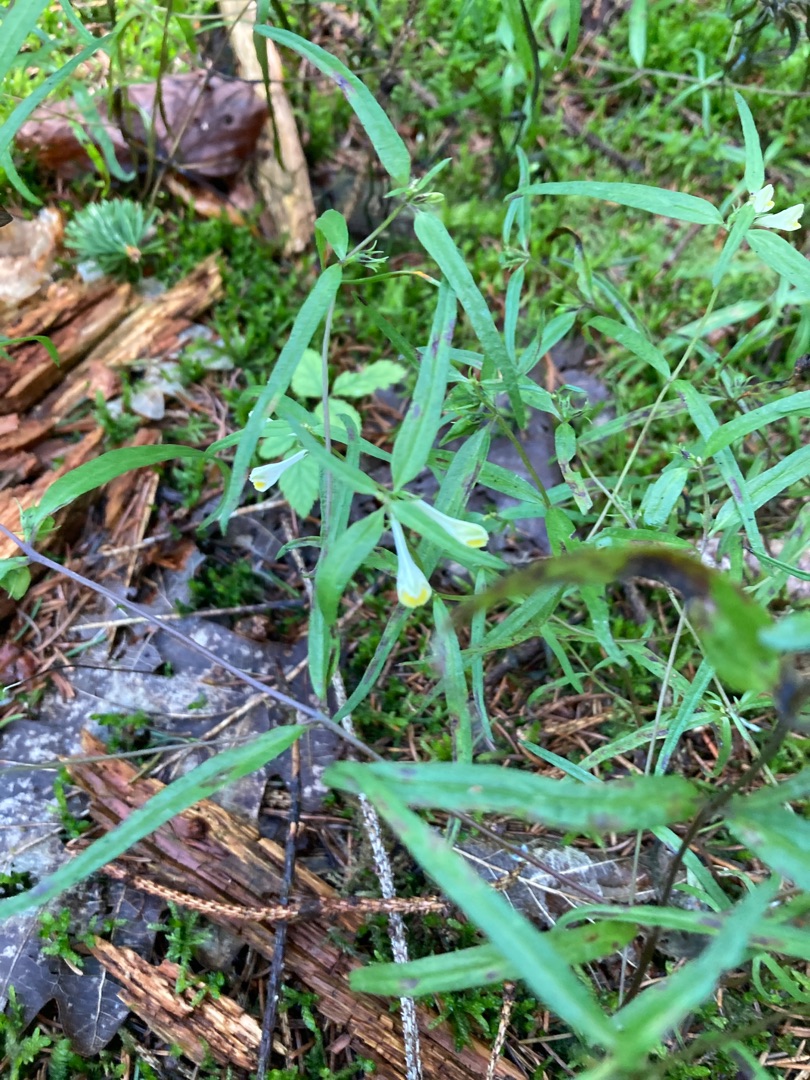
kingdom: Plantae
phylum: Tracheophyta
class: Magnoliopsida
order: Lamiales
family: Orobanchaceae
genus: Melampyrum
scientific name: Melampyrum pratense
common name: Almindelig kohvede
